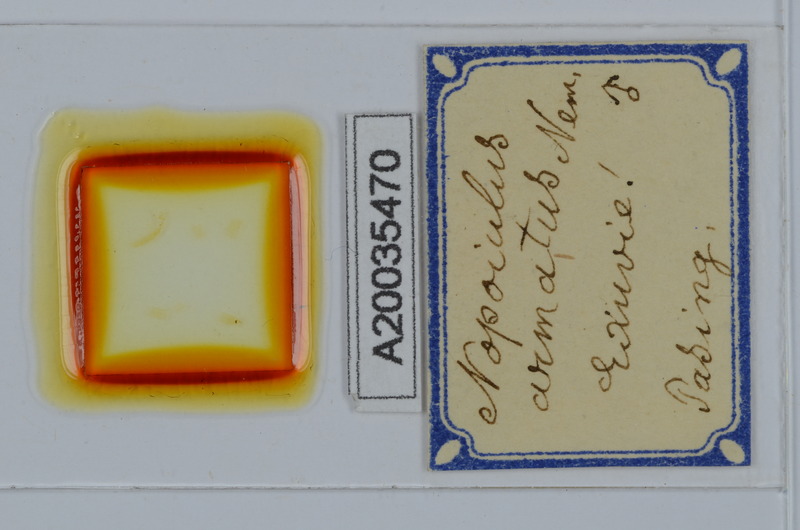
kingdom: Animalia
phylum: Arthropoda
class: Diplopoda
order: Julida
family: Blaniulidae
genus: Nopoiulus
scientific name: Nopoiulus kochii
